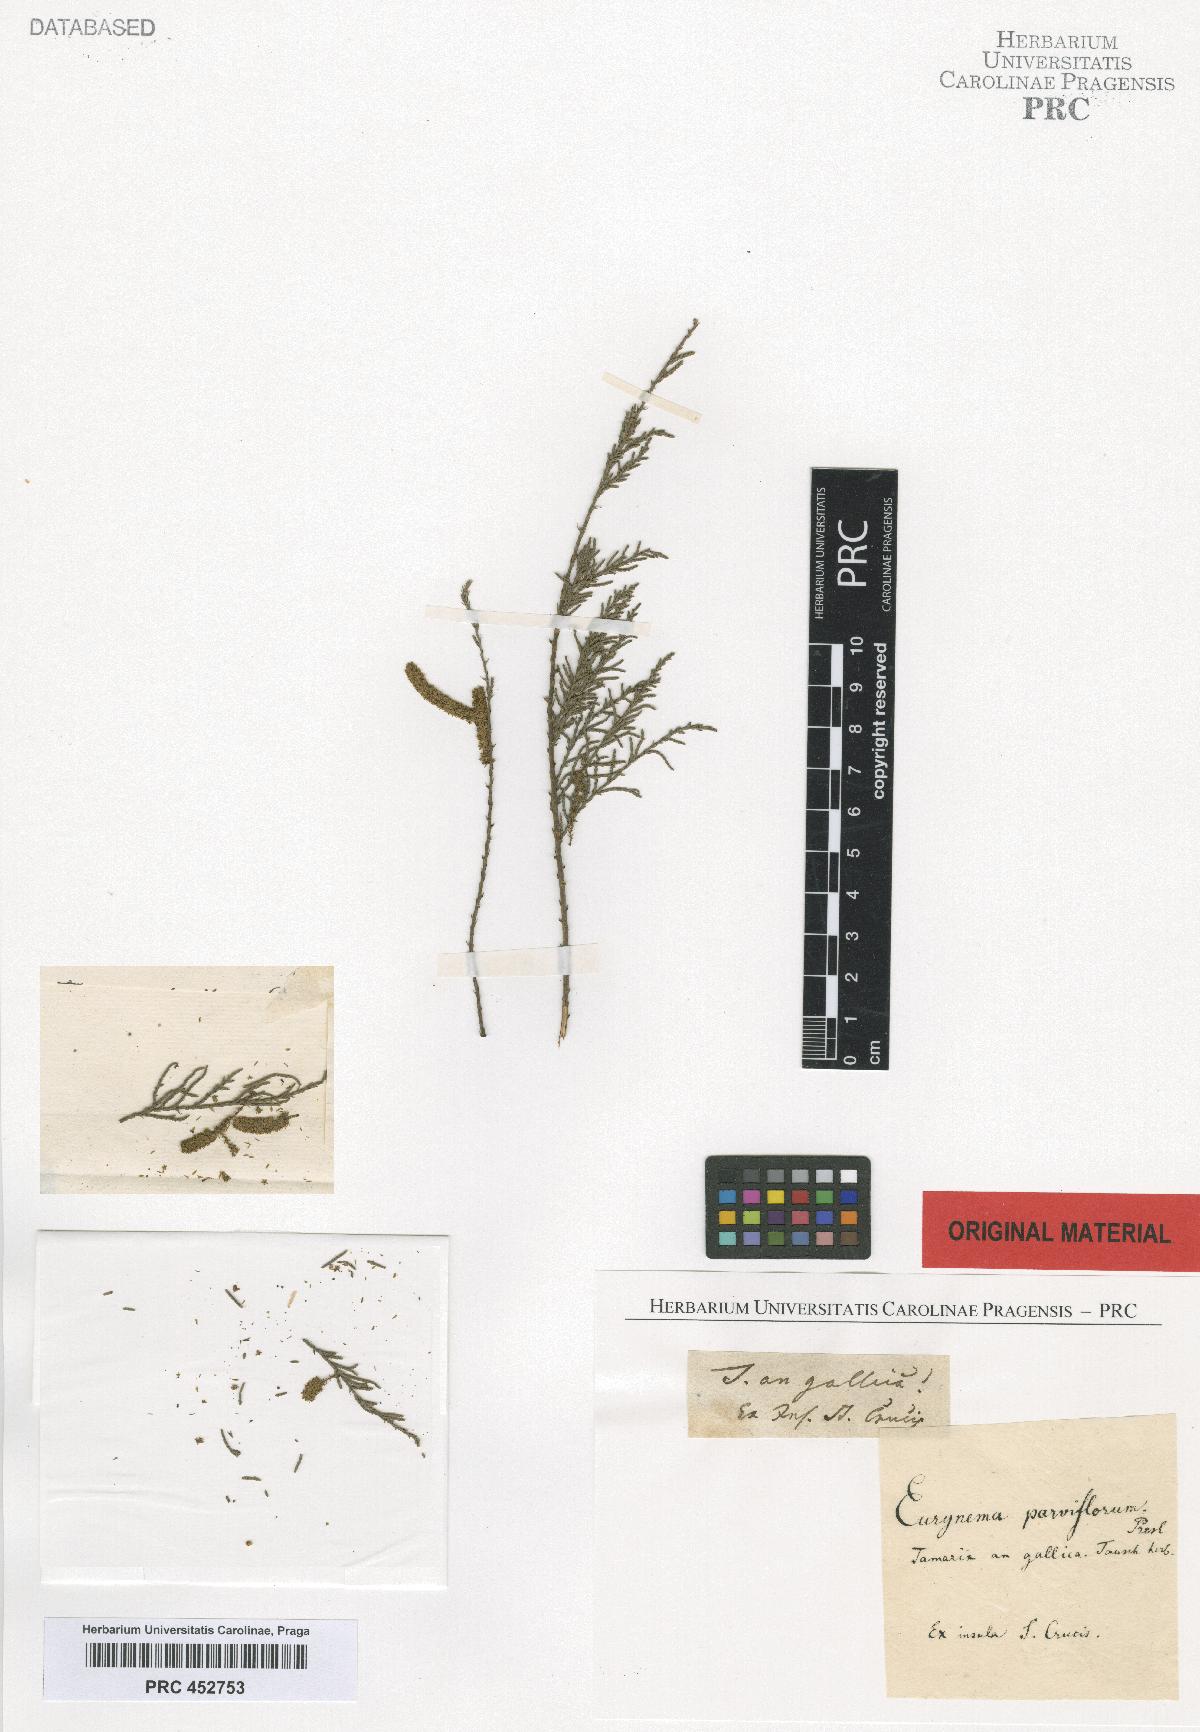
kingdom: Plantae
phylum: Tracheophyta
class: Magnoliopsida
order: Caryophyllales
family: Tamaricaceae
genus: Tamarix
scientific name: Tamarix
